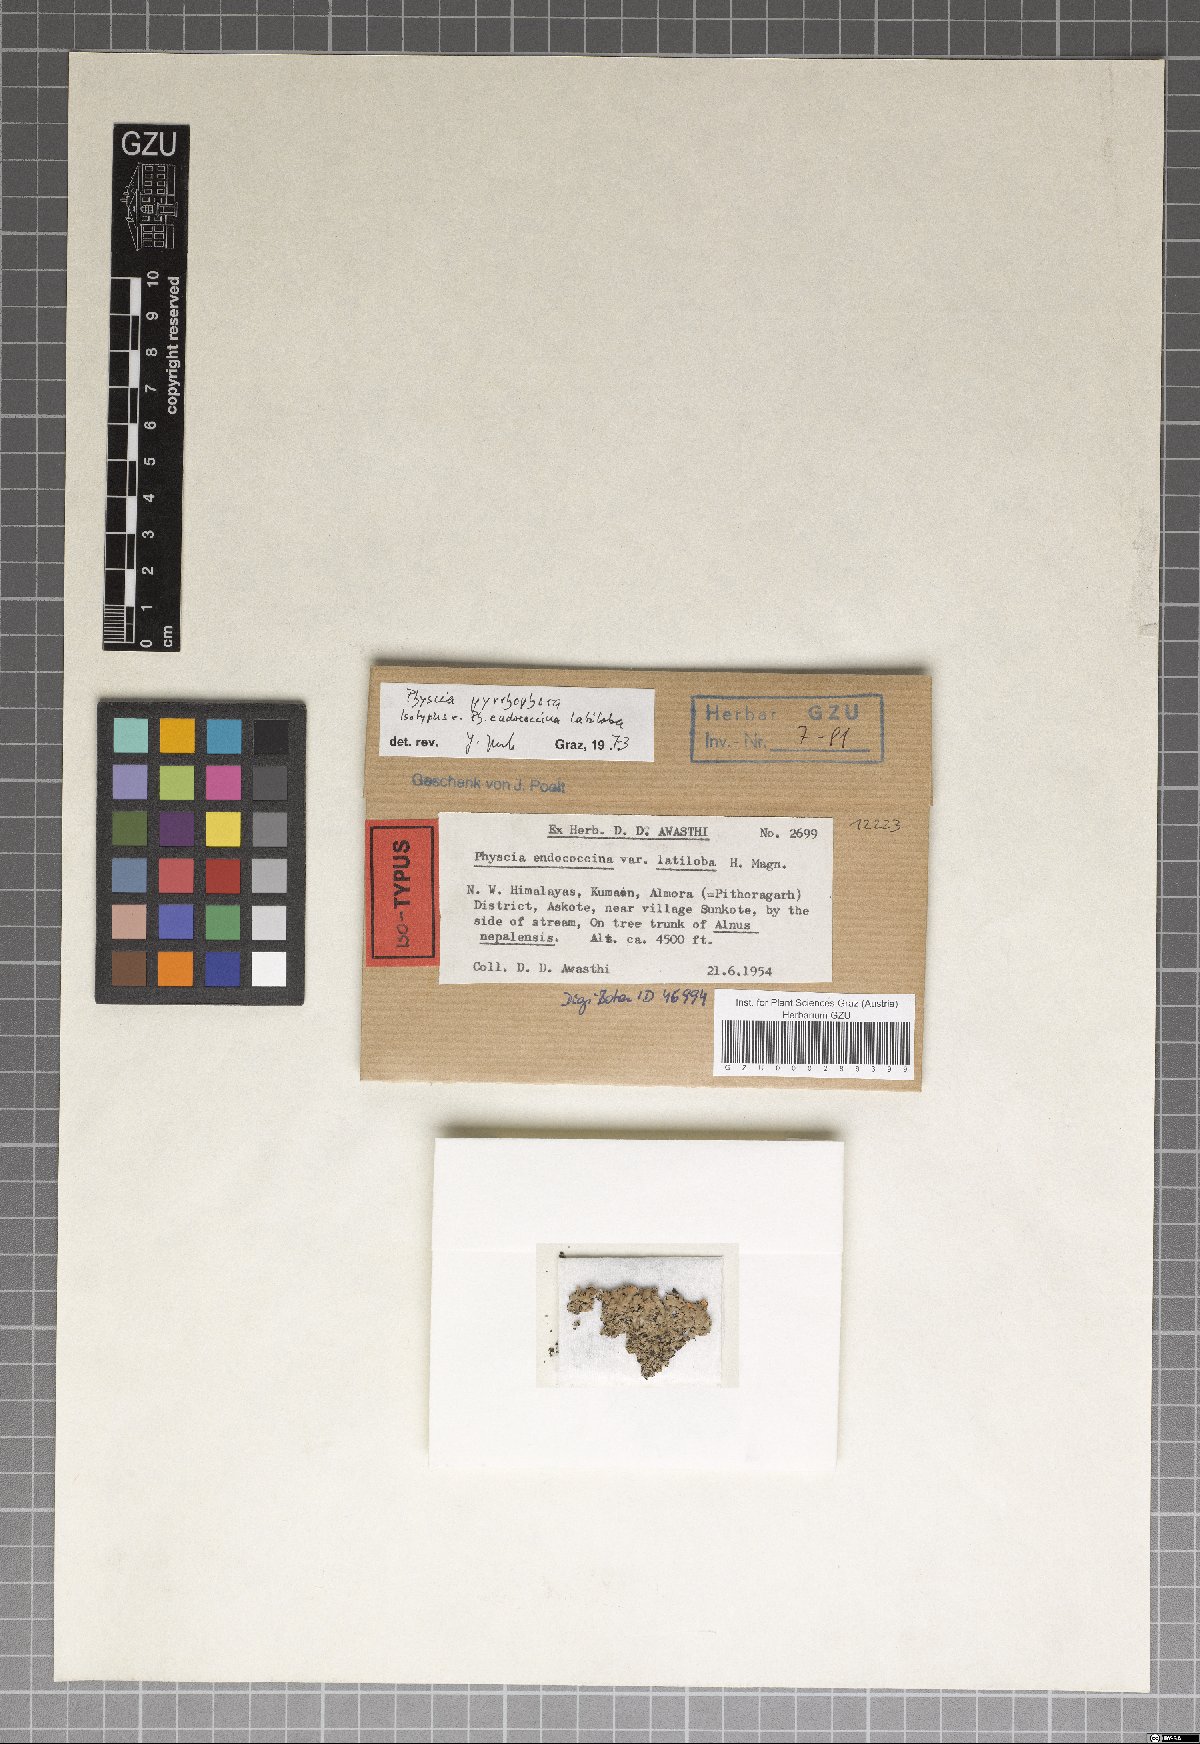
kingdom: Fungi
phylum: Ascomycota
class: Lecanoromycetes
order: Caliciales
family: Physciaceae
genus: Phaeophyscia
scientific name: Phaeophyscia endococcina
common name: Starburst shadow lichen
